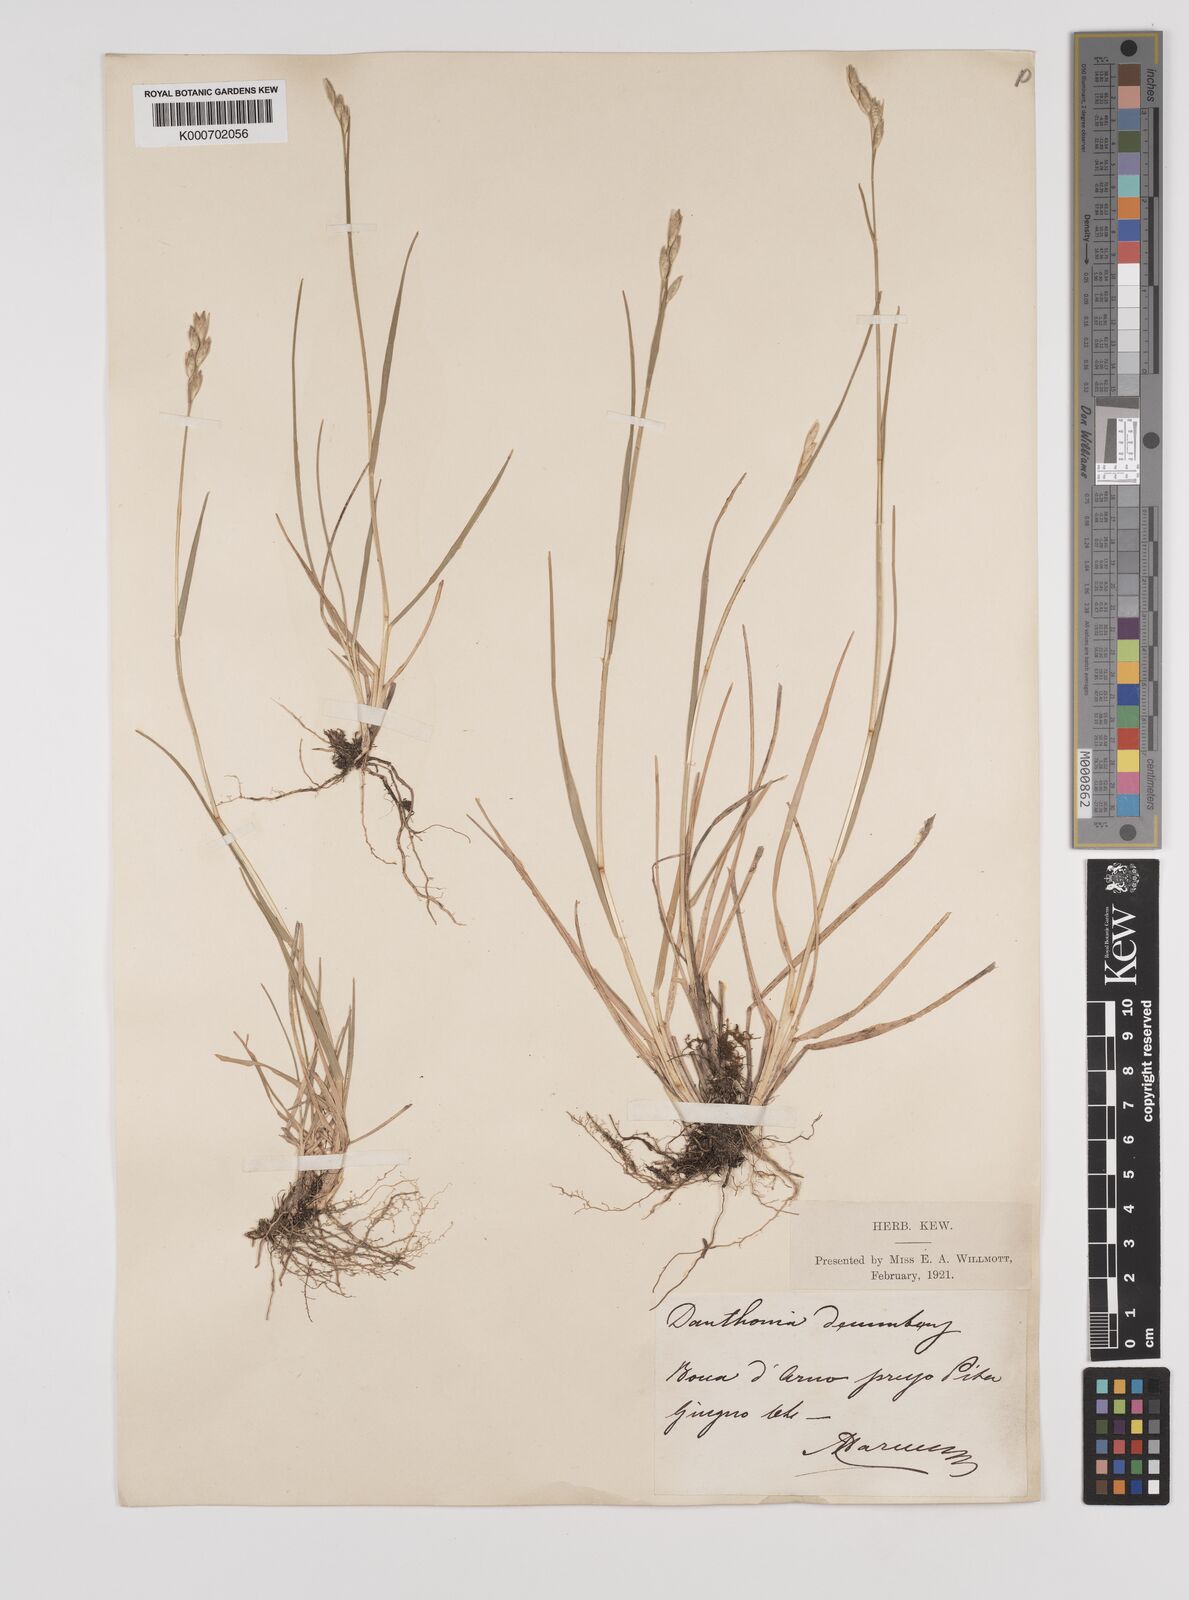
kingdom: Plantae
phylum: Tracheophyta
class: Liliopsida
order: Poales
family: Poaceae
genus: Danthonia
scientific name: Danthonia decumbens
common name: Common heathgrass
